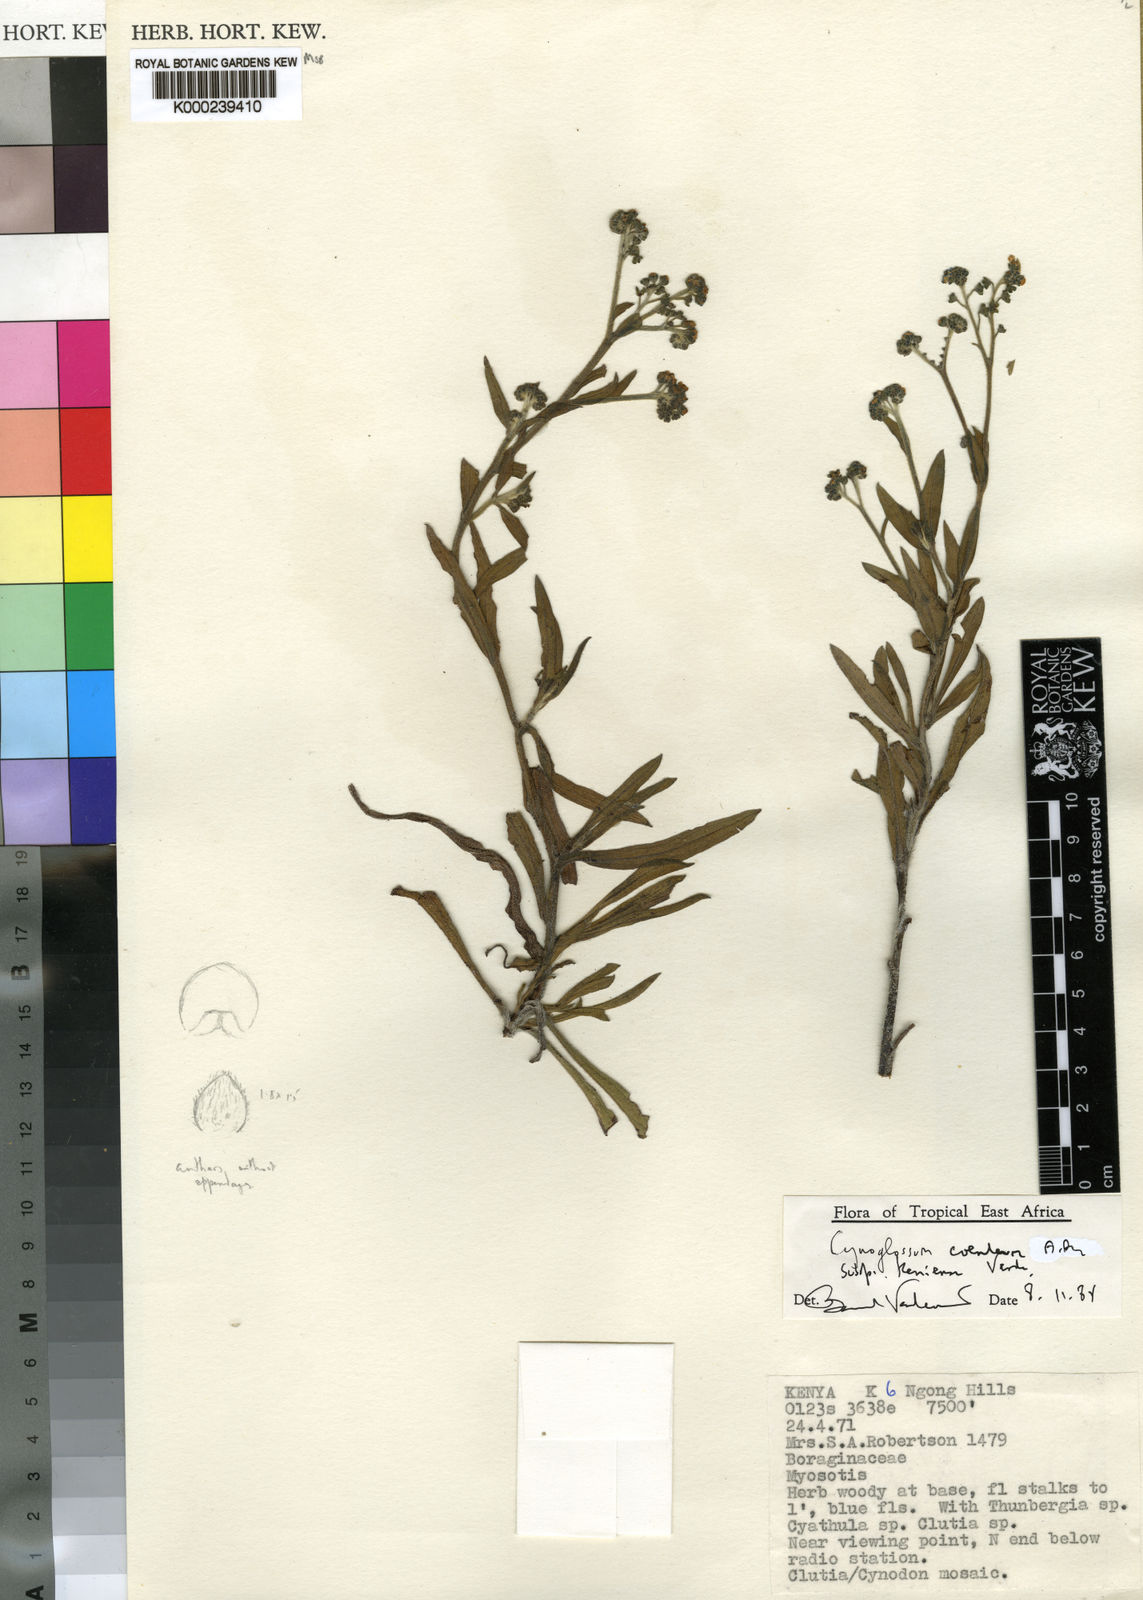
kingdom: Plantae
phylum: Tracheophyta
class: Magnoliopsida
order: Boraginales
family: Boraginaceae
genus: Paracynoglossum
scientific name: Paracynoglossum afrocaeruleum
